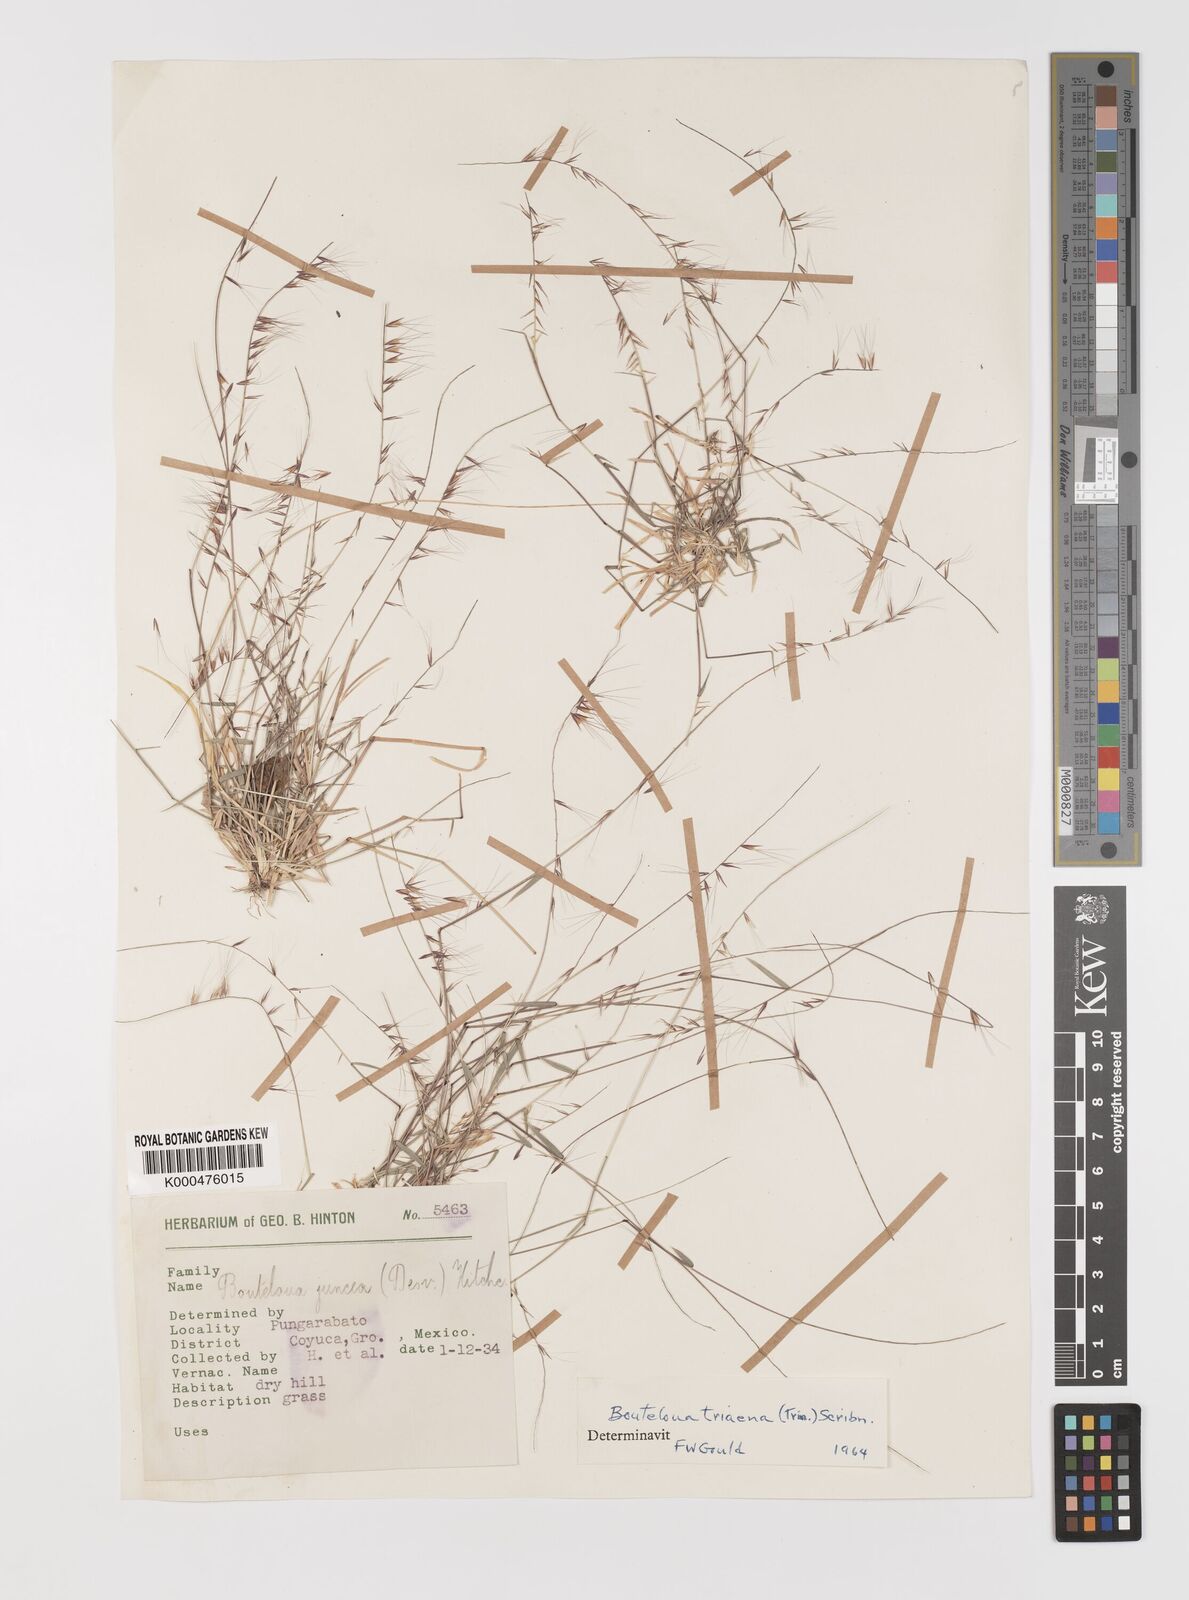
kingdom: Plantae
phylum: Tracheophyta
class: Liliopsida
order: Poales
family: Poaceae
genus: Bouteloua
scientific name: Bouteloua triaena
